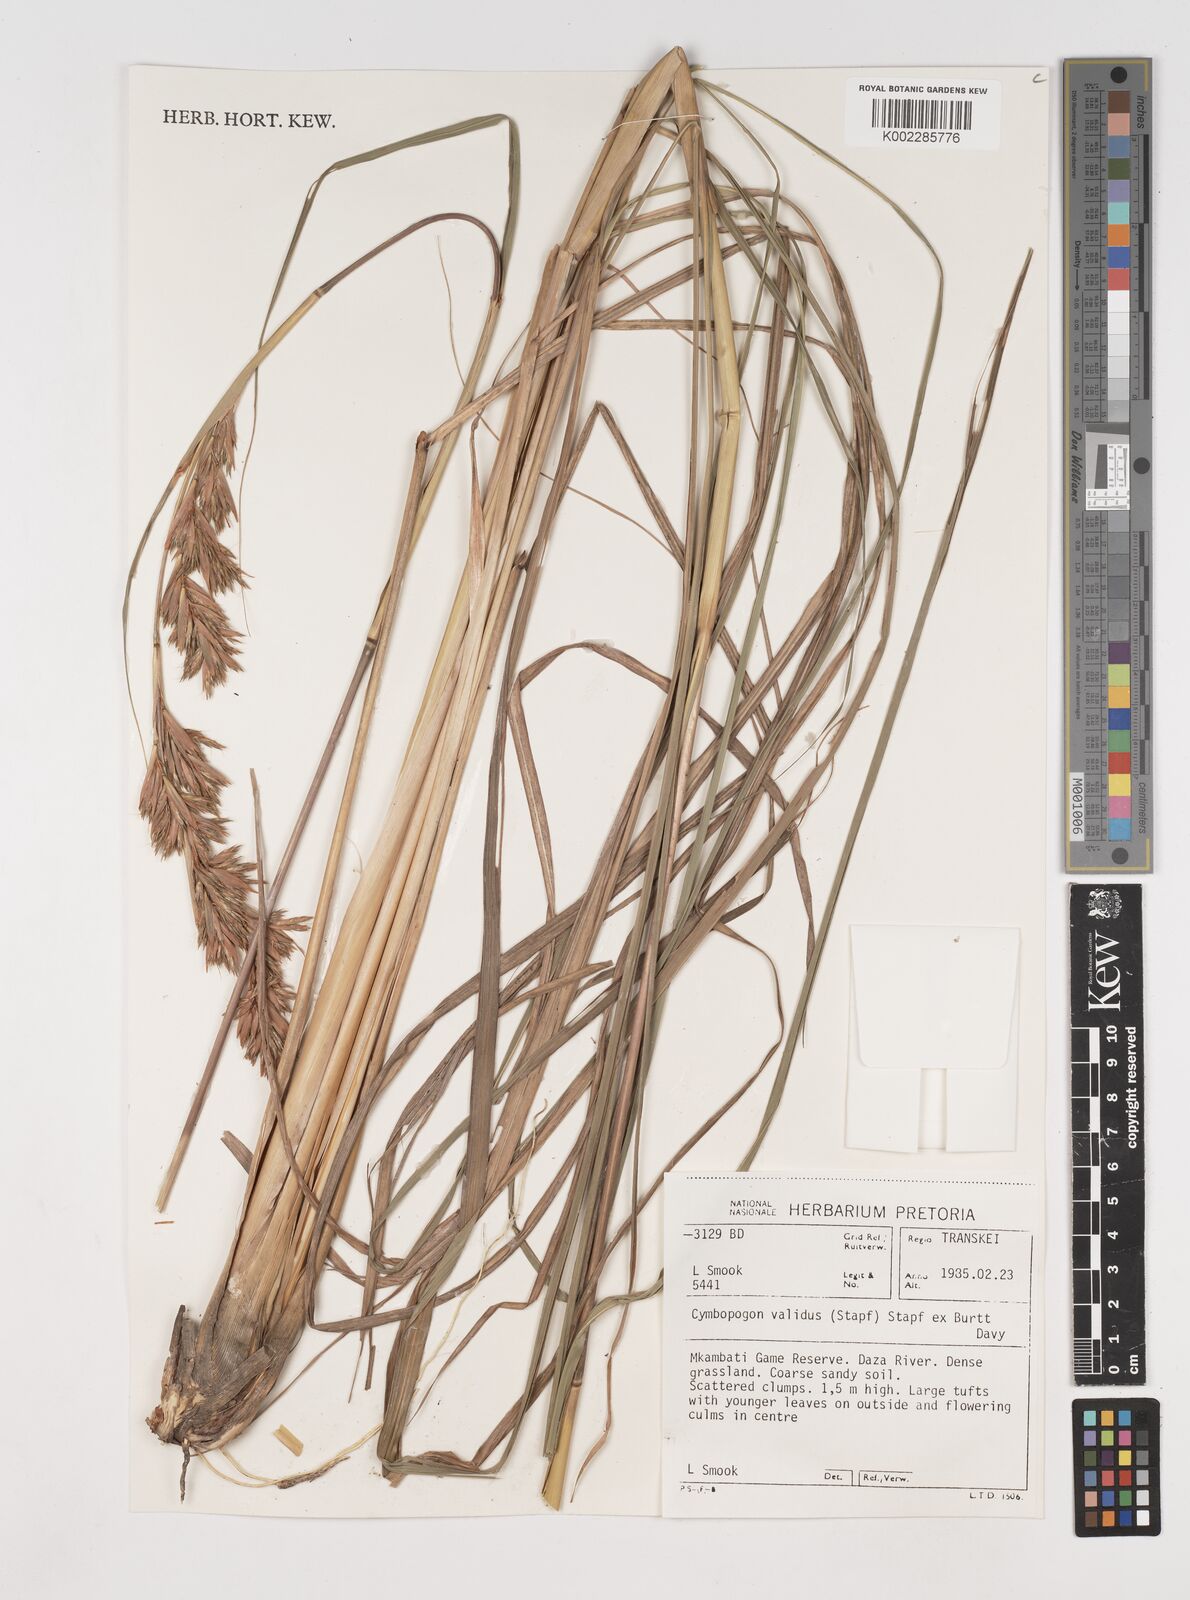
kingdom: Plantae
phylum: Tracheophyta
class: Liliopsida
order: Poales
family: Poaceae
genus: Cymbopogon
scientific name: Cymbopogon nardus
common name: Giant turpentine grass
